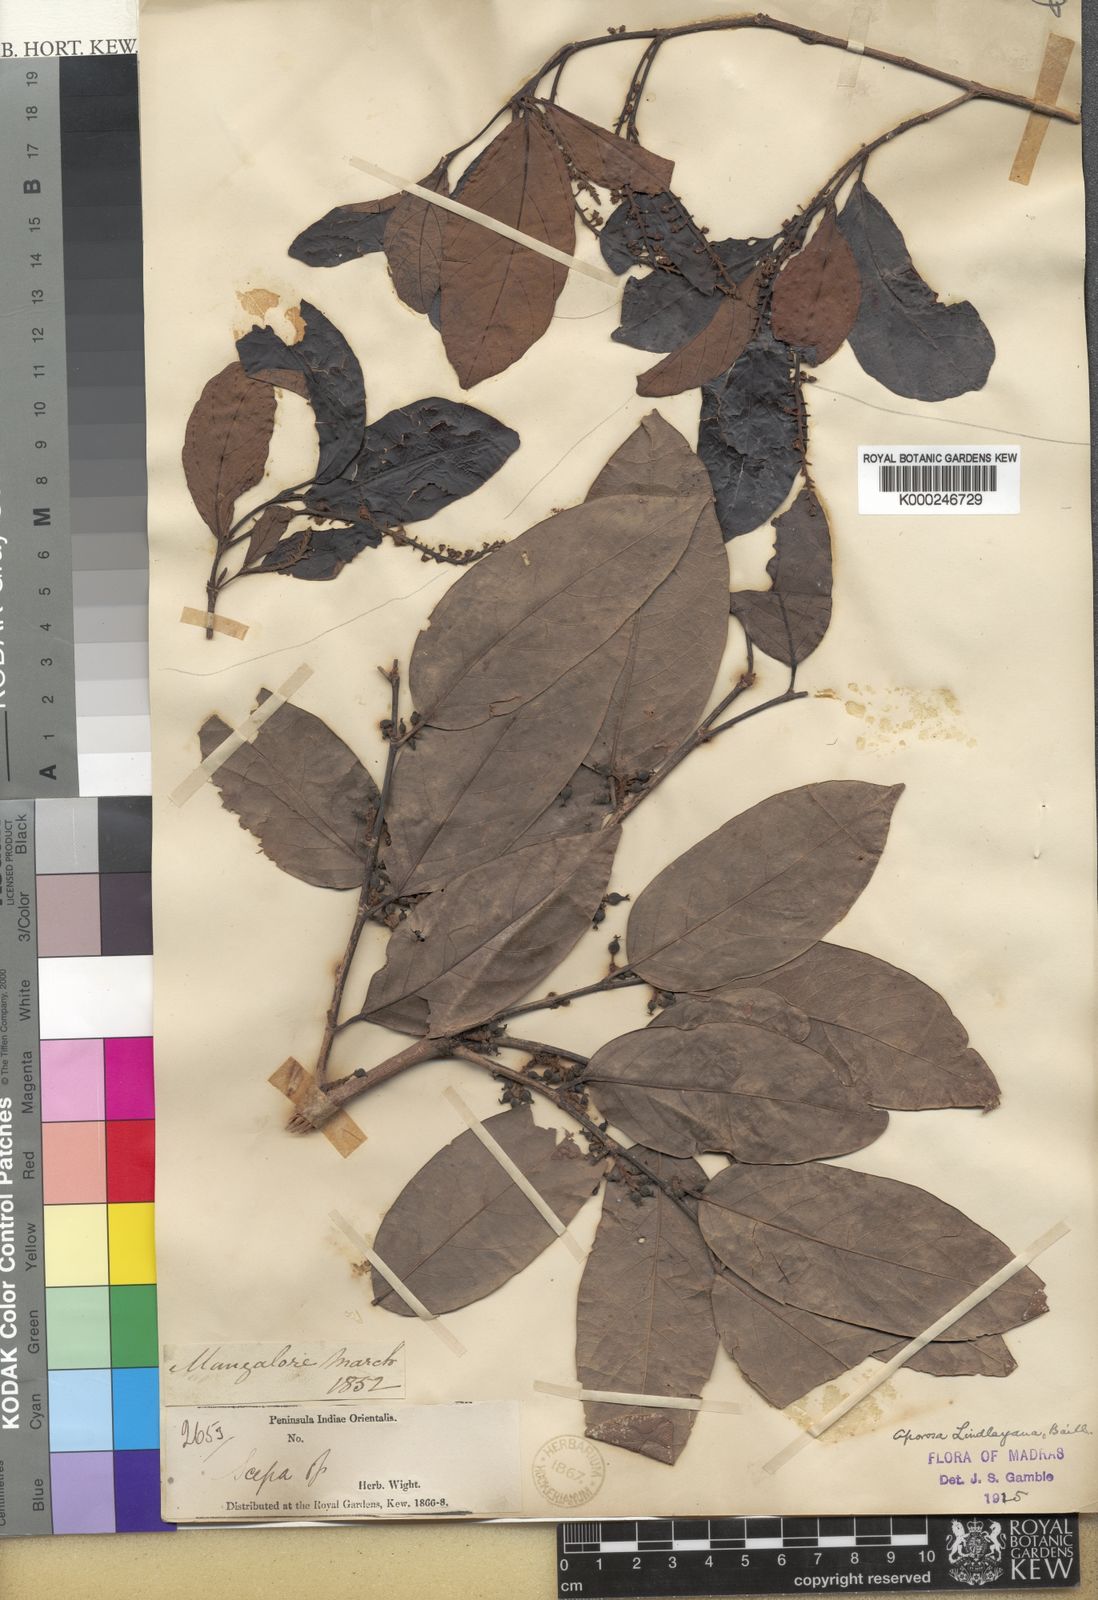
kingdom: Plantae
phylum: Tracheophyta
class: Magnoliopsida
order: Malpighiales
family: Phyllanthaceae
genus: Aporosa
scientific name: Aporosa cardiosperma
